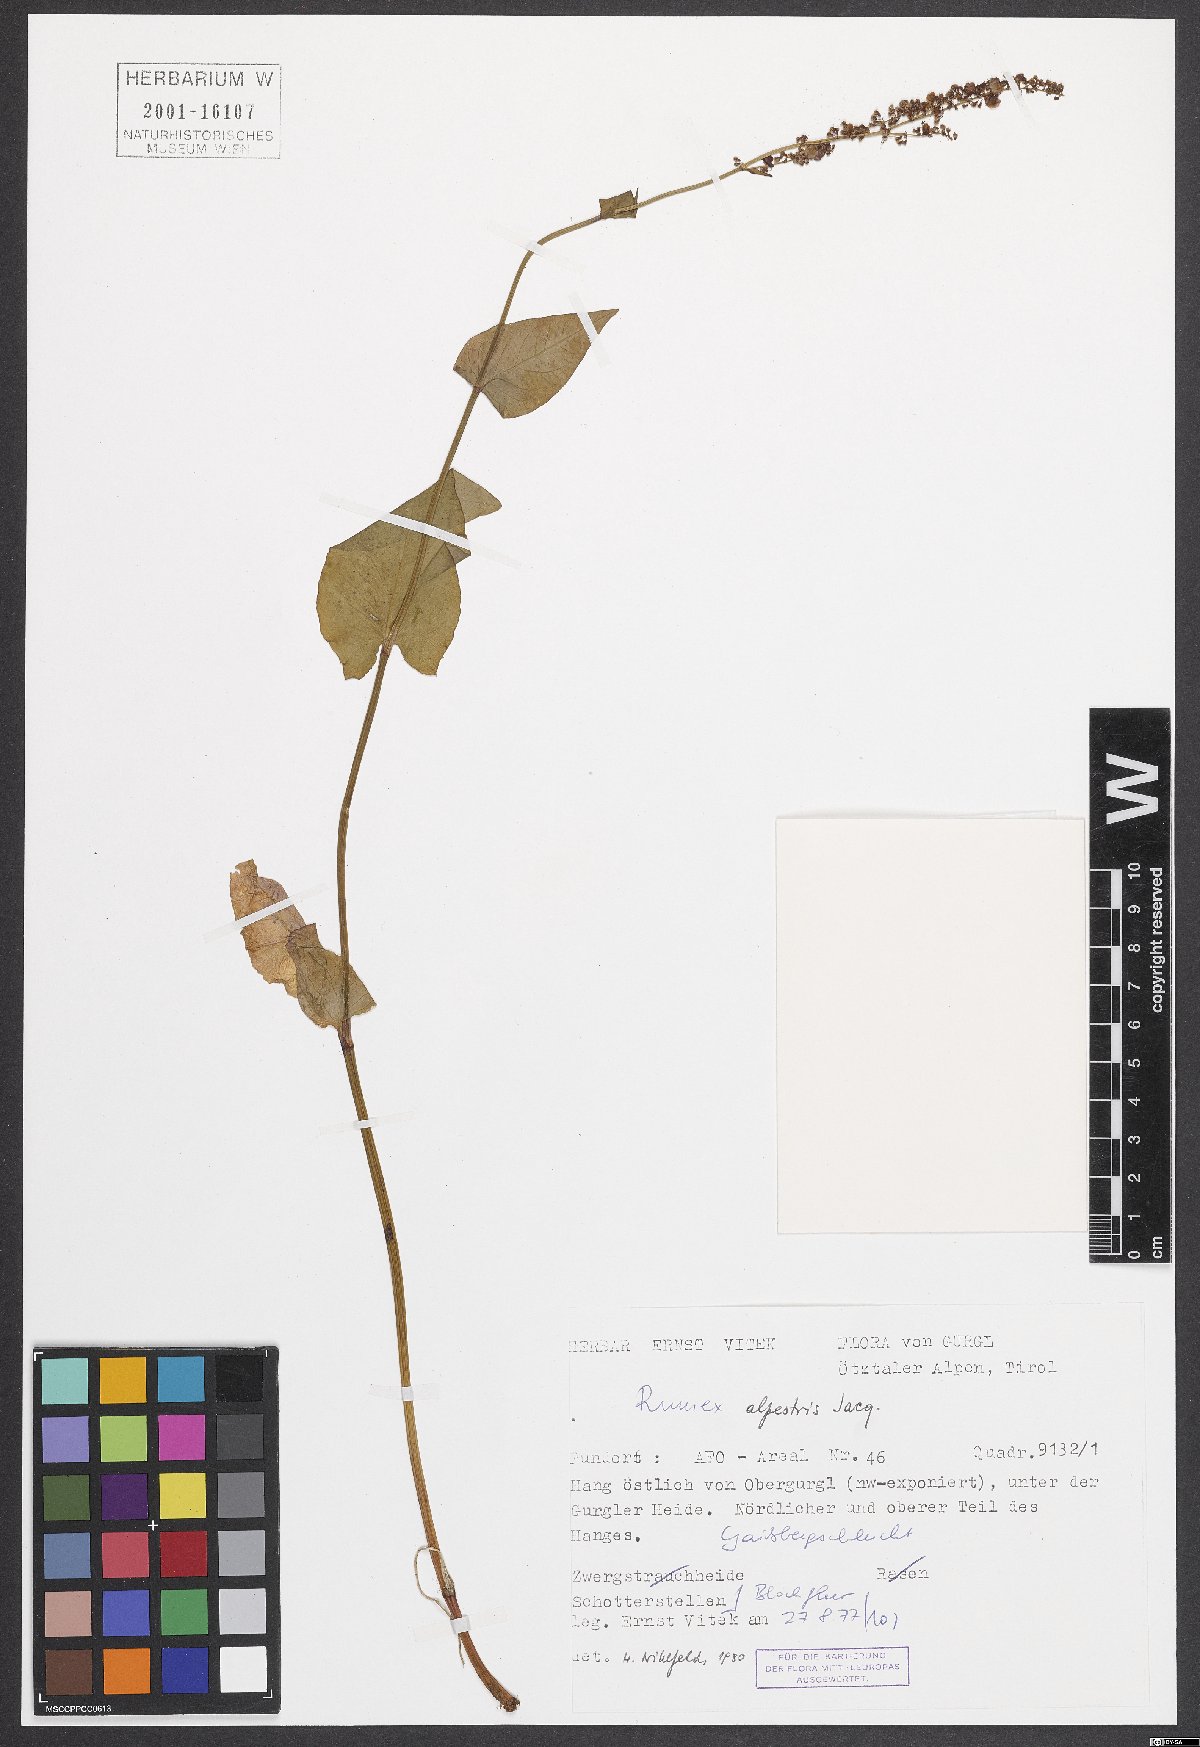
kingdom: Plantae
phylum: Tracheophyta
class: Magnoliopsida
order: Caryophyllales
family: Polygonaceae
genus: Rumex
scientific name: Rumex scutatus
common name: French sorrel
